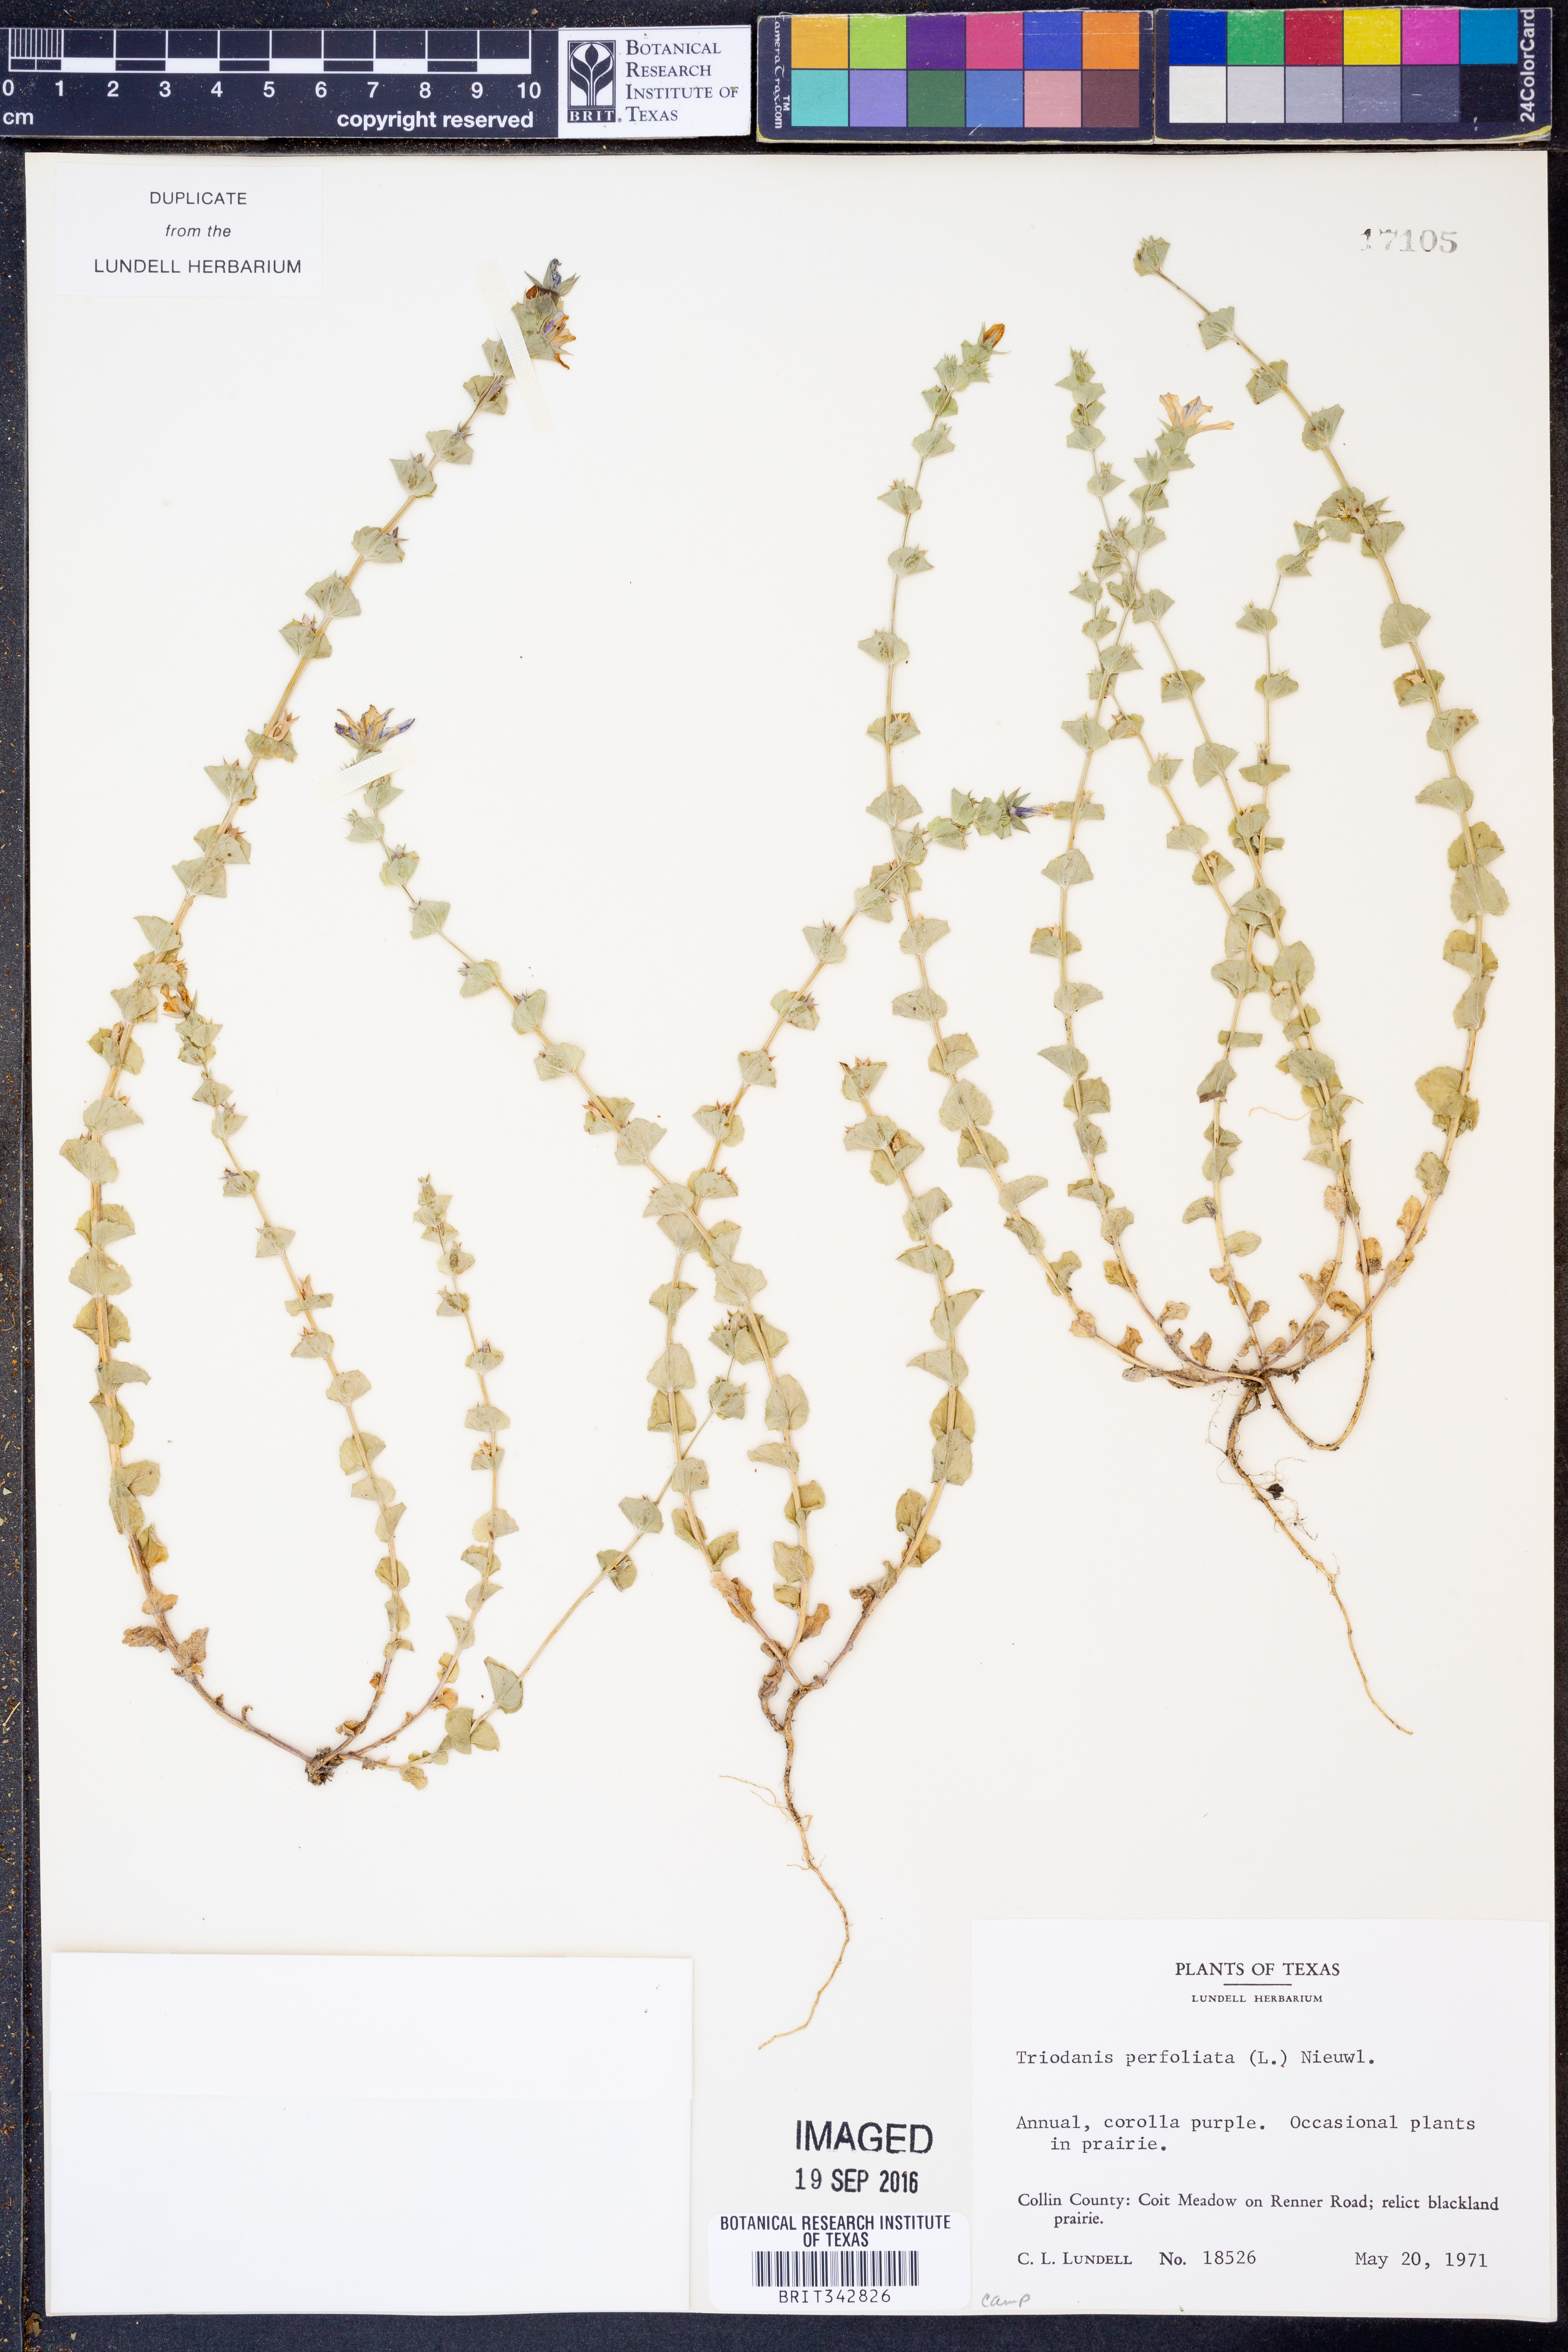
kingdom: Plantae
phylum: Tracheophyta
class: Magnoliopsida
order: Asterales
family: Campanulaceae
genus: Triodanis
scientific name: Triodanis perfoliata
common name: Clasping venus' looking-glass
